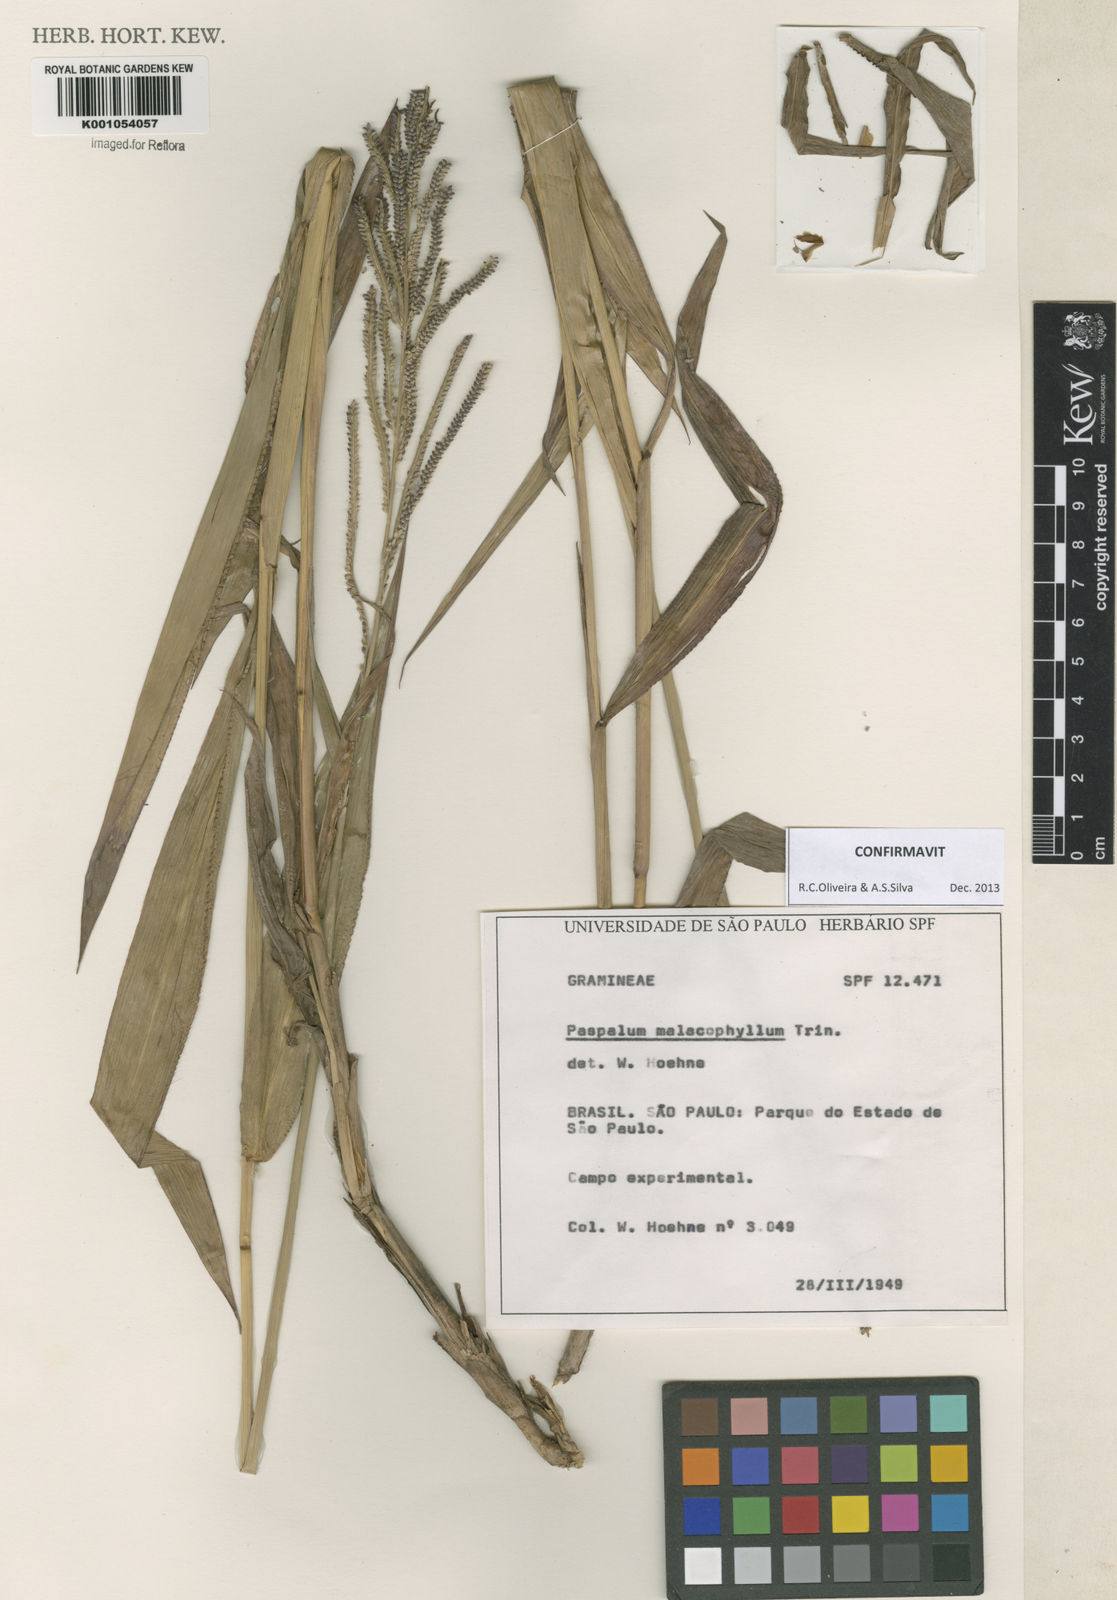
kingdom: Plantae
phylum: Tracheophyta
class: Liliopsida
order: Poales
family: Poaceae
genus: Paspalum
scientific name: Paspalum malacophyllum
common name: Ribbed paspalum
